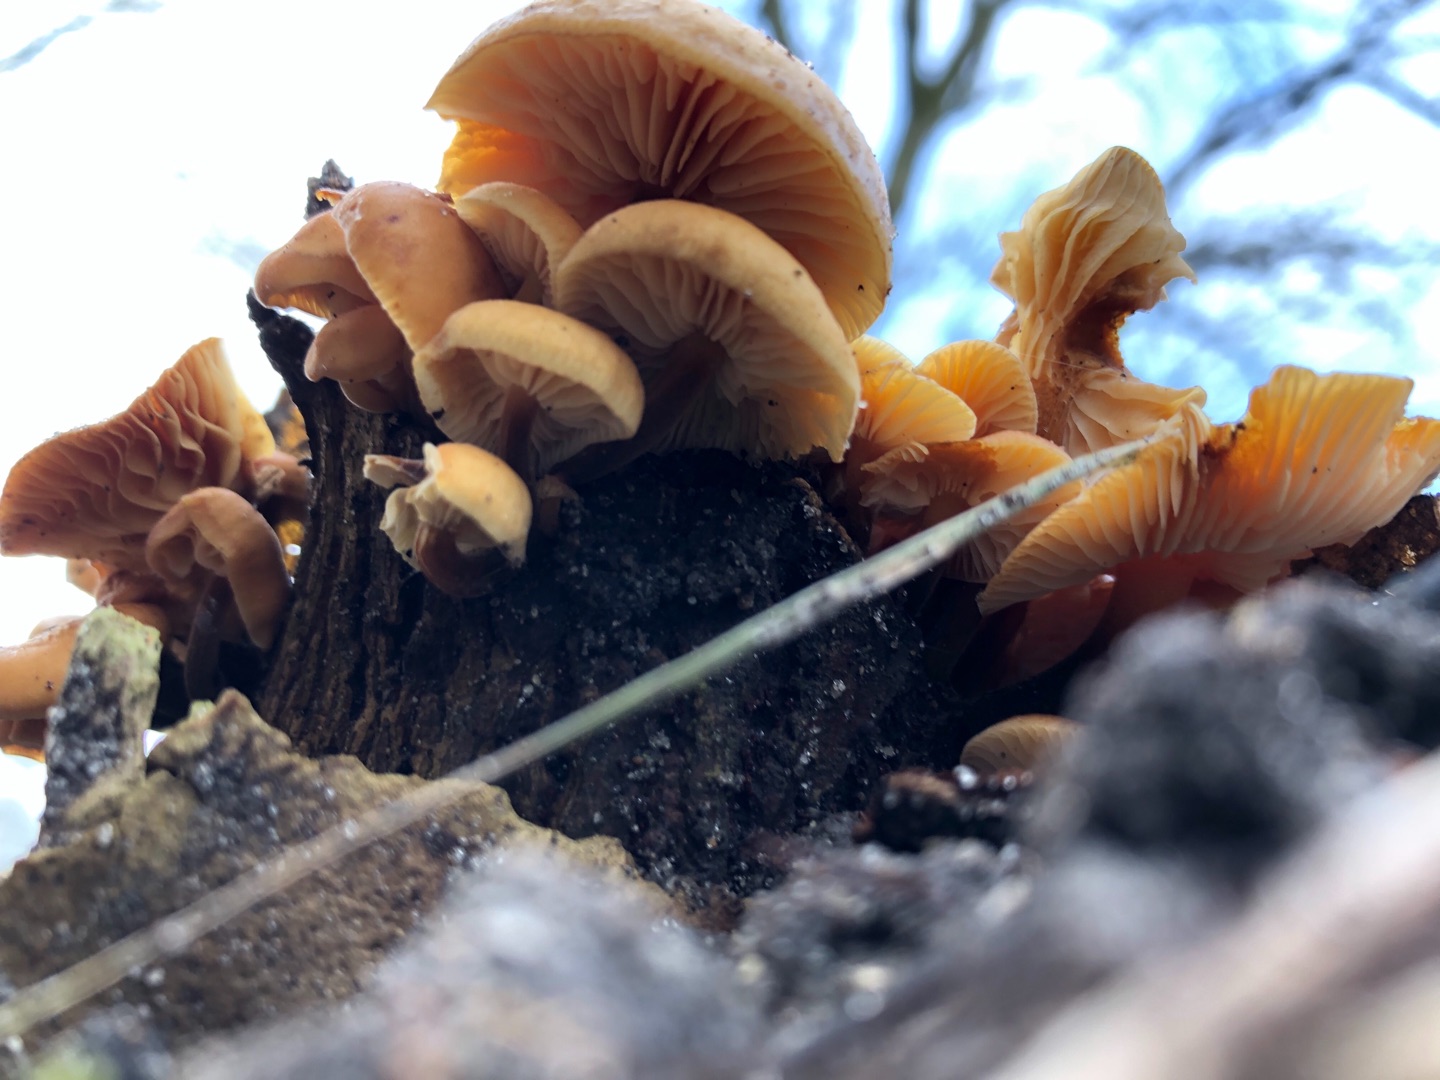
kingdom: Fungi
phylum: Basidiomycota
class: Agaricomycetes
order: Agaricales
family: Physalacriaceae
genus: Flammulina
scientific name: Flammulina
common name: Fløjlsfod
